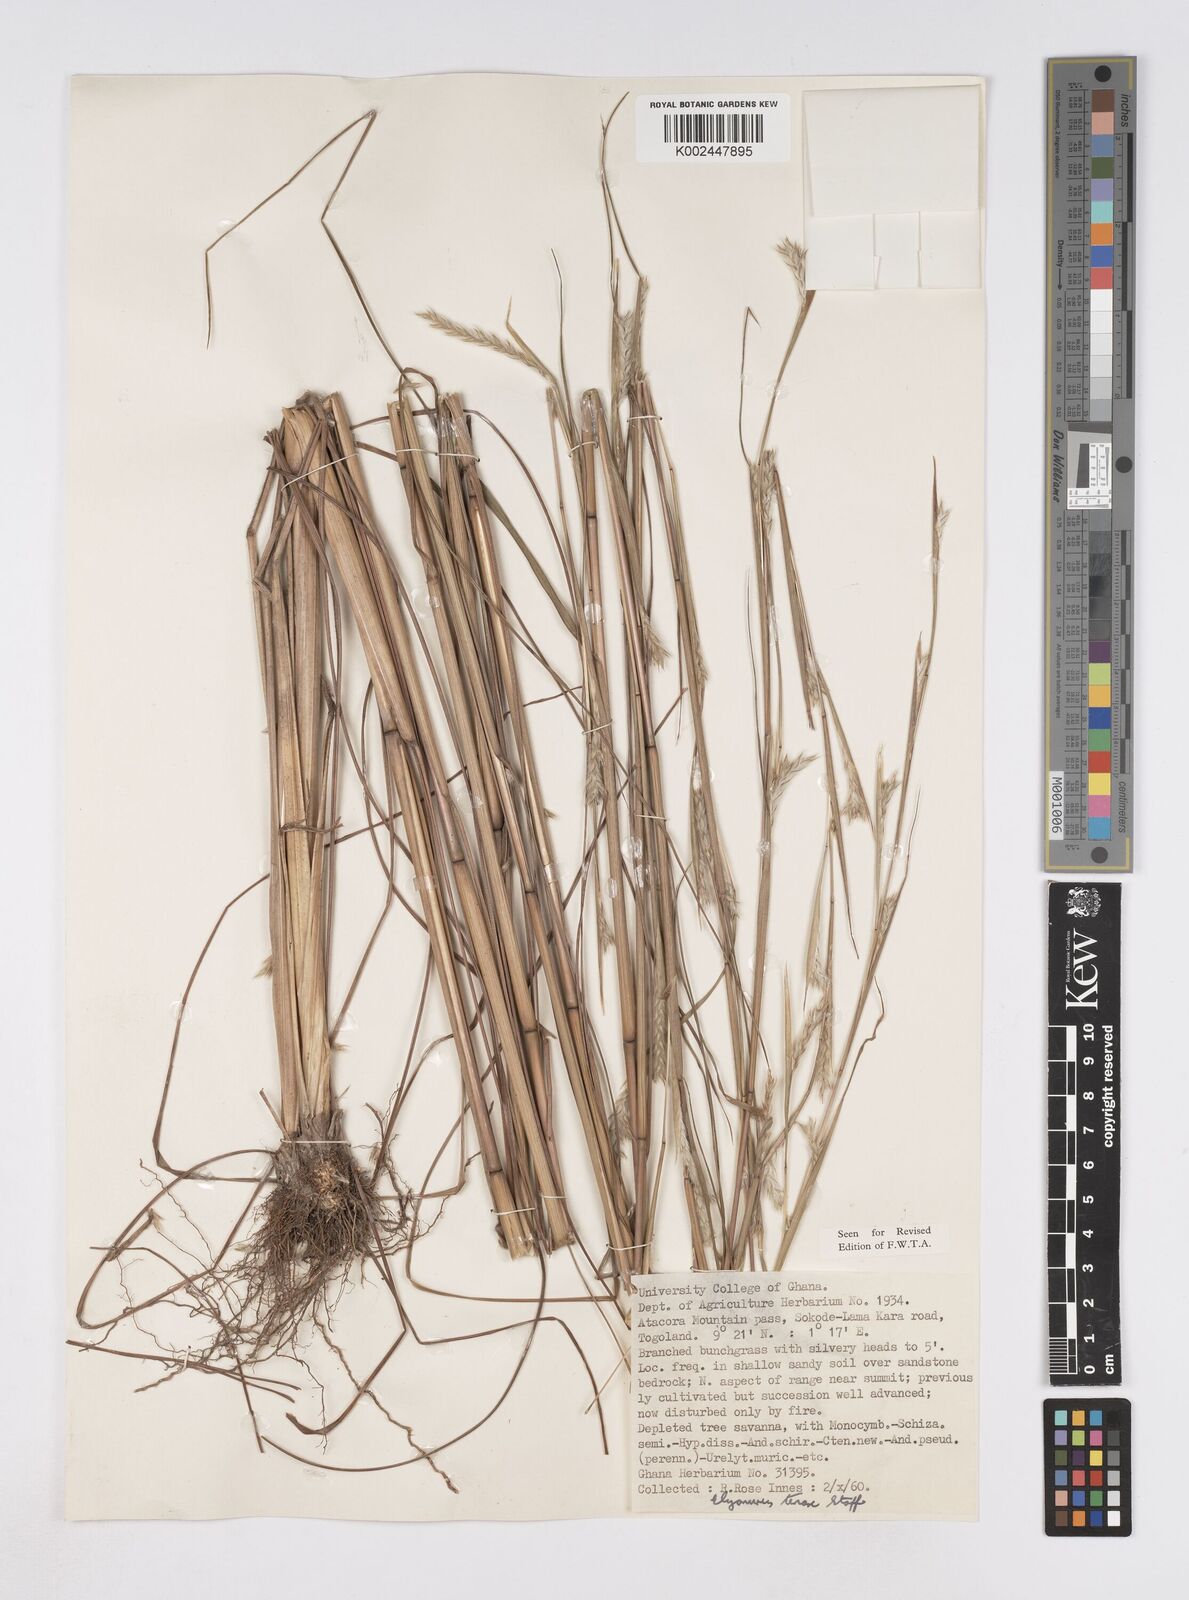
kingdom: Plantae
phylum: Tracheophyta
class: Liliopsida
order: Poales
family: Poaceae
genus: Elionurus
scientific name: Elionurus ciliaris
